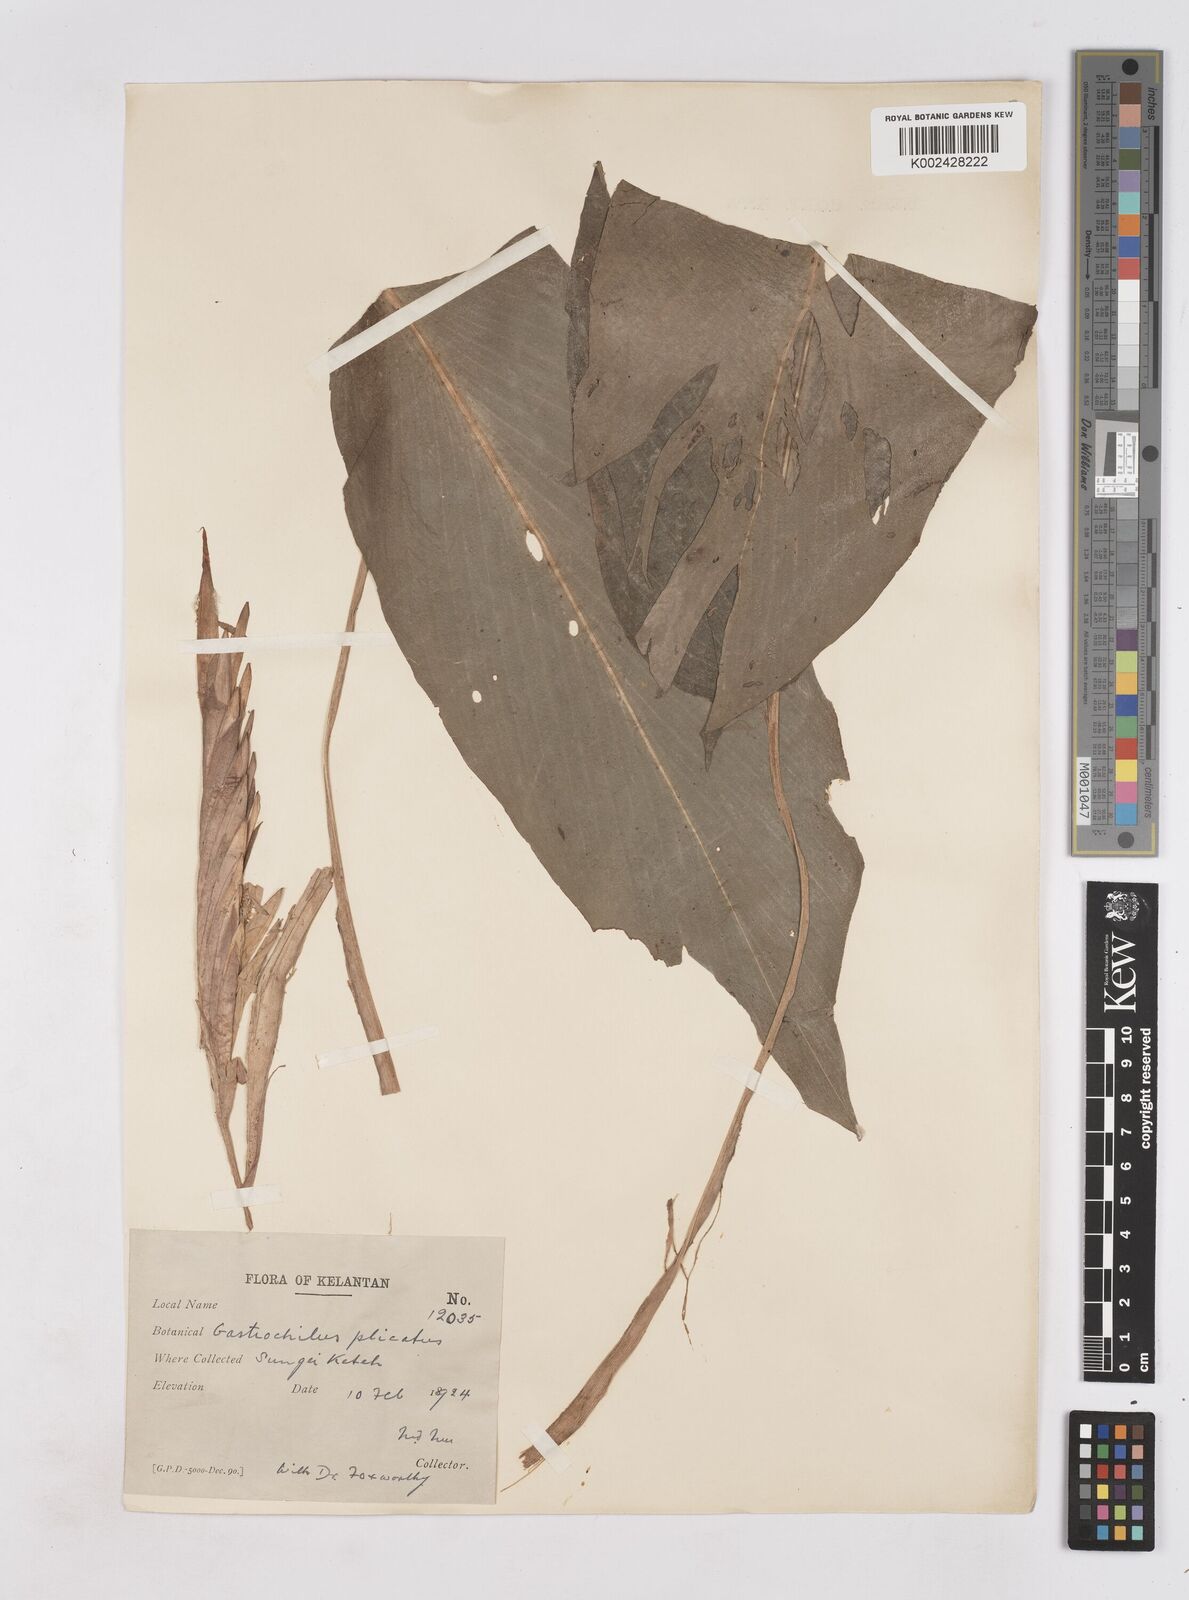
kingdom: Plantae
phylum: Tracheophyta
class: Liliopsida
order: Zingiberales
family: Zingiberaceae
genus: Boesenbergia
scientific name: Boesenbergia plicata
